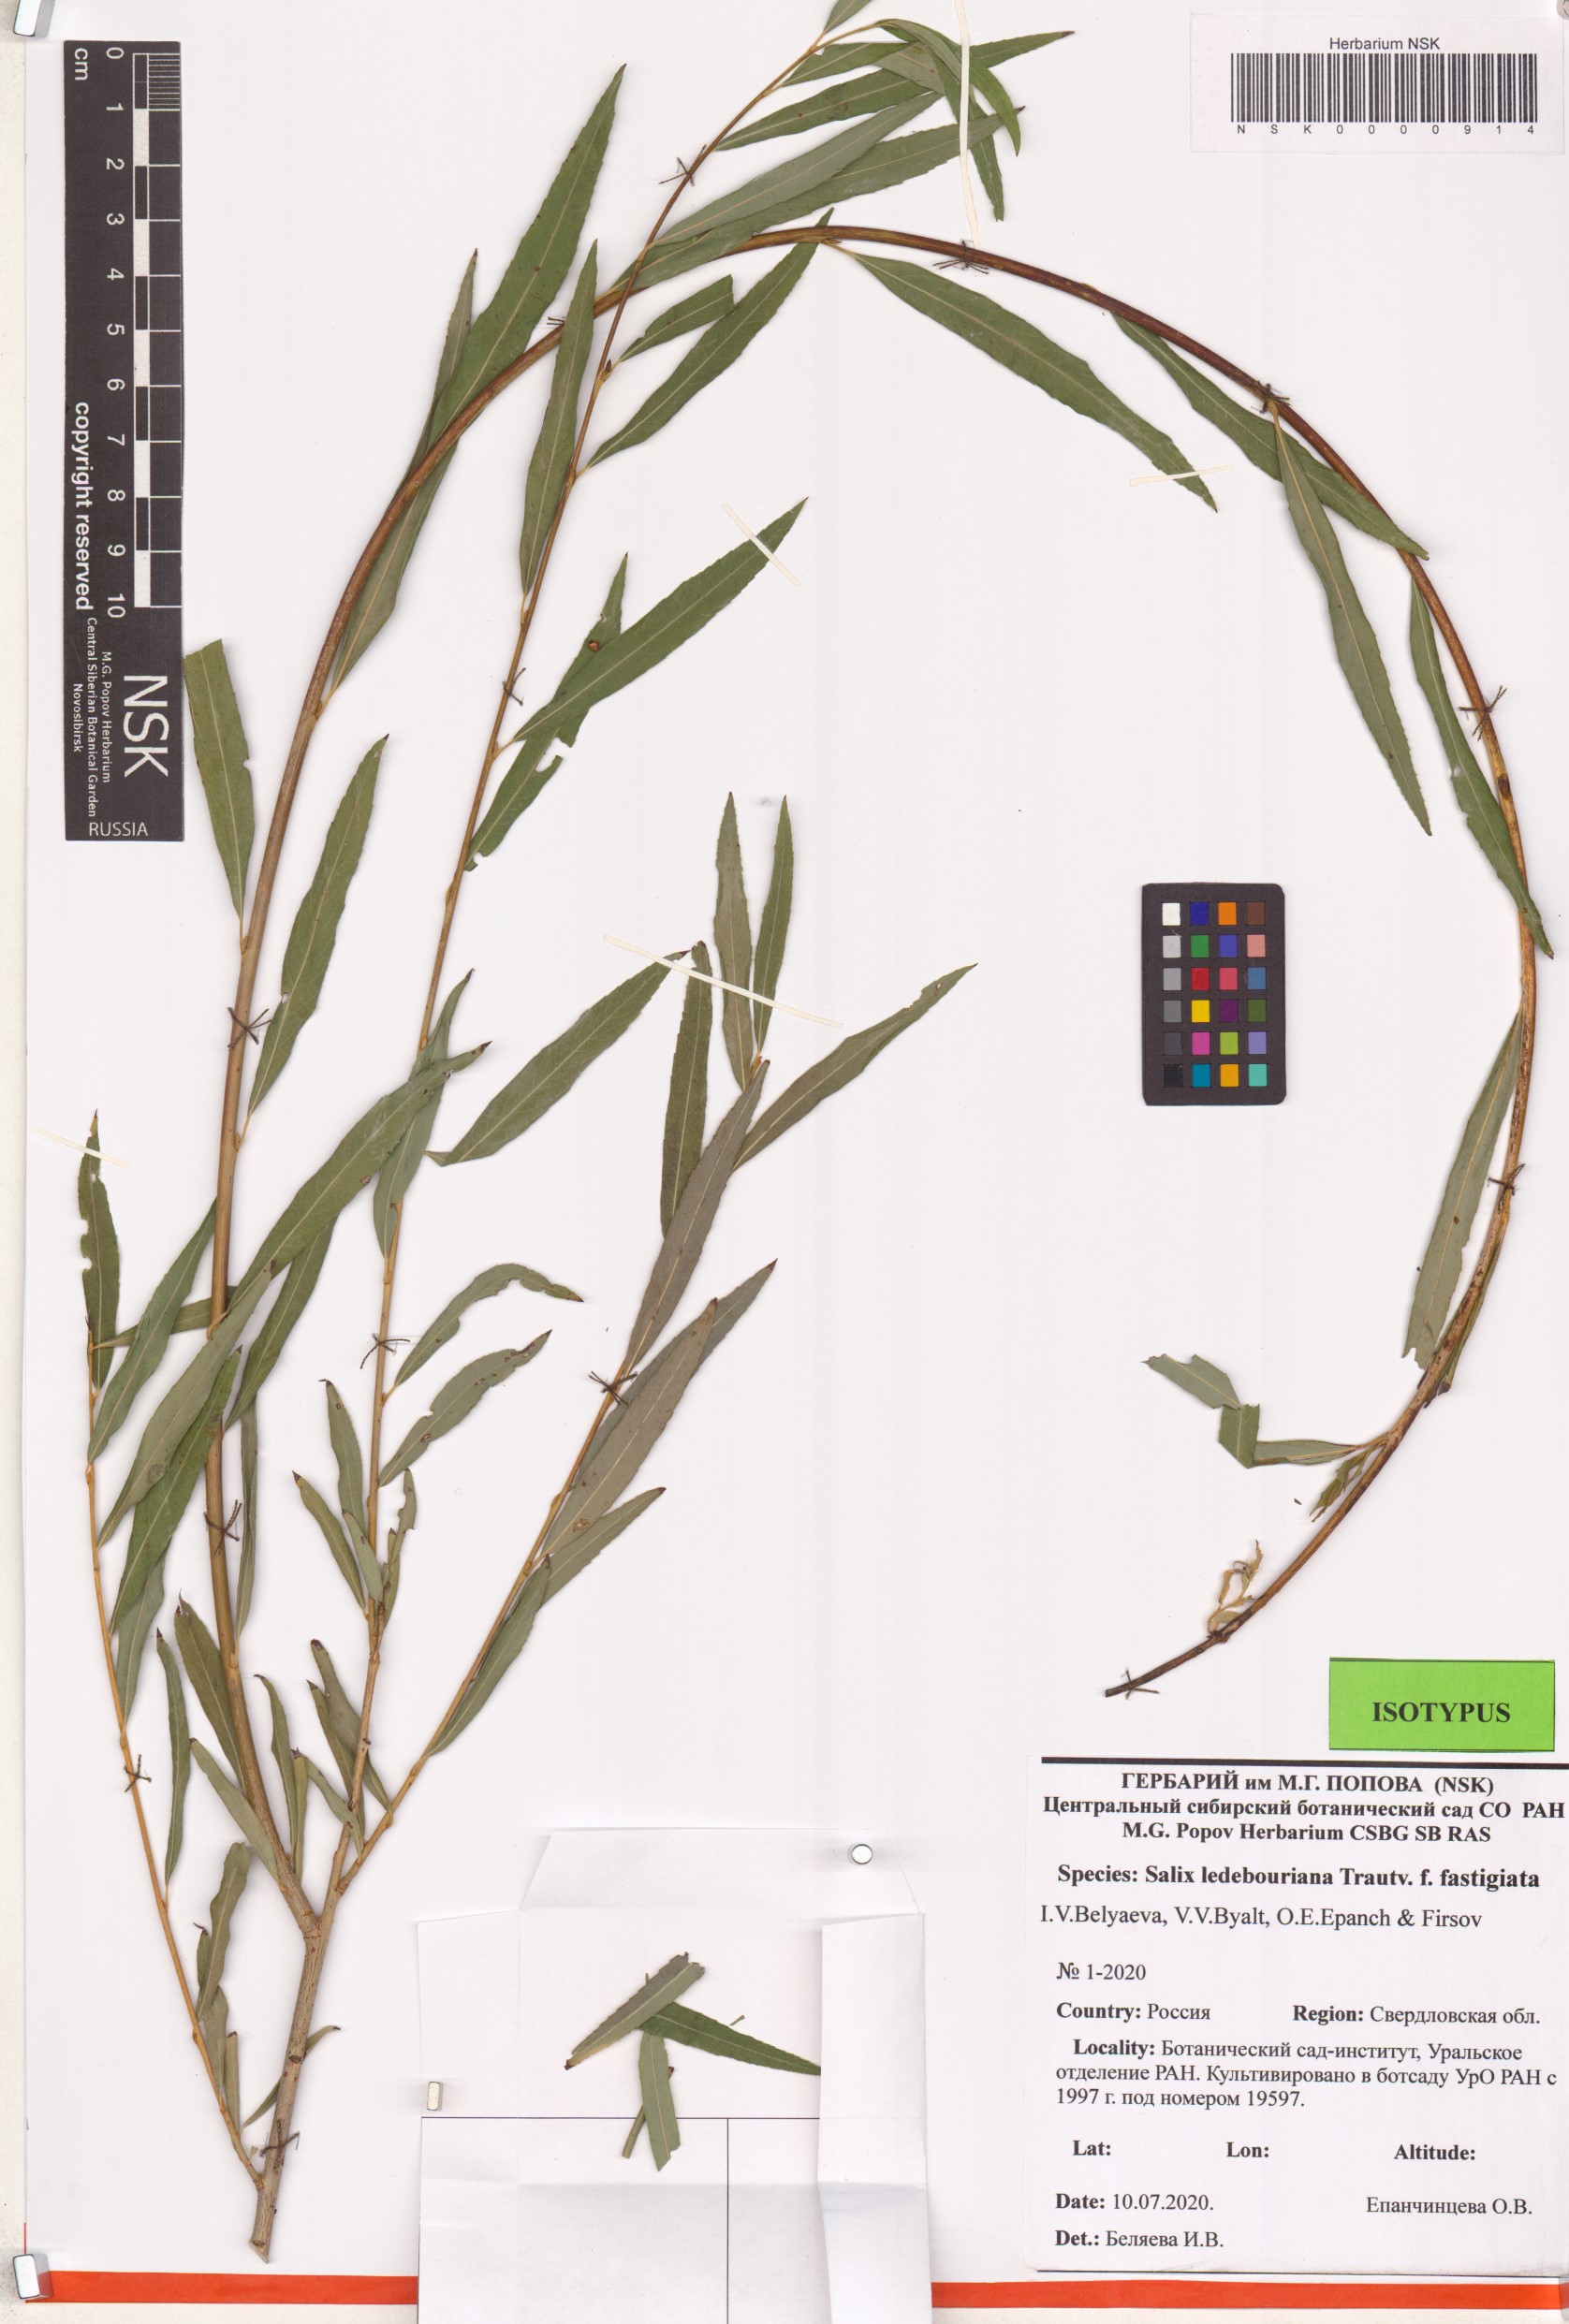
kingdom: Plantae
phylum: Tracheophyta
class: Magnoliopsida
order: Malpighiales
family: Salicaceae
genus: Salix
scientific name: Salix ledebouriana
